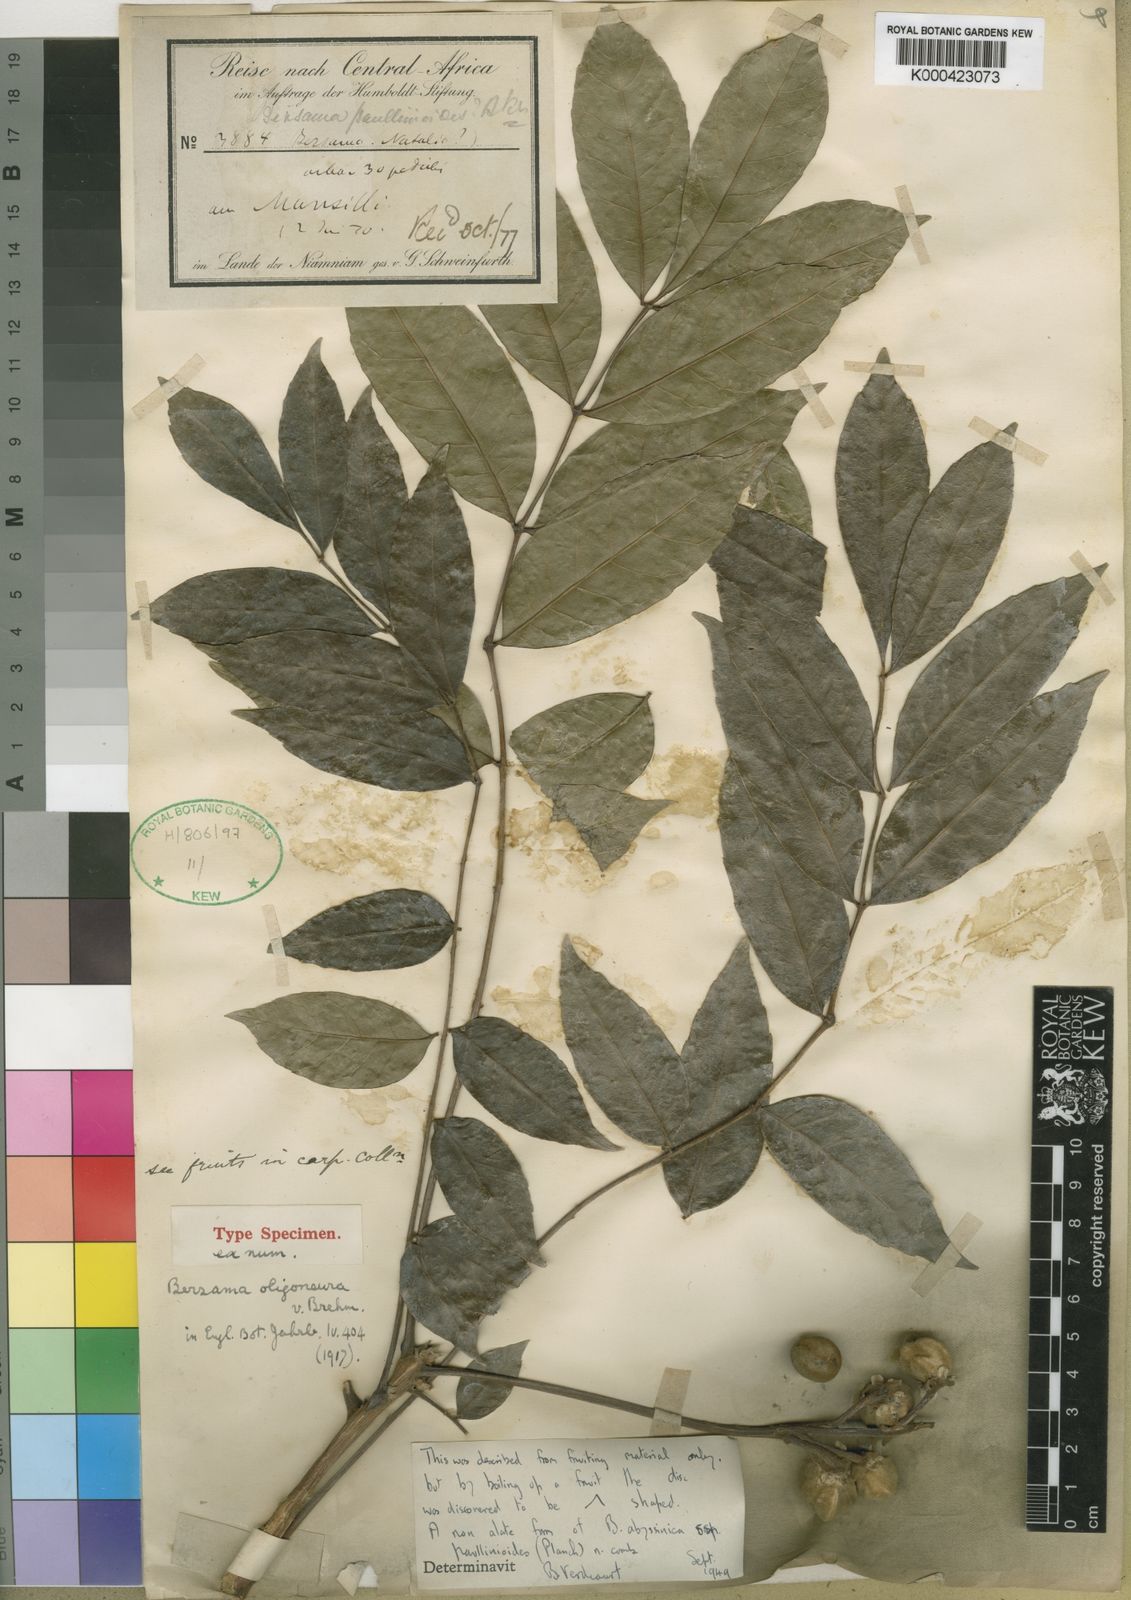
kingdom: Plantae
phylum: Tracheophyta
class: Magnoliopsida
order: Geraniales
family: Melianthaceae
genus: Bersama
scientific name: Bersama abyssinica
